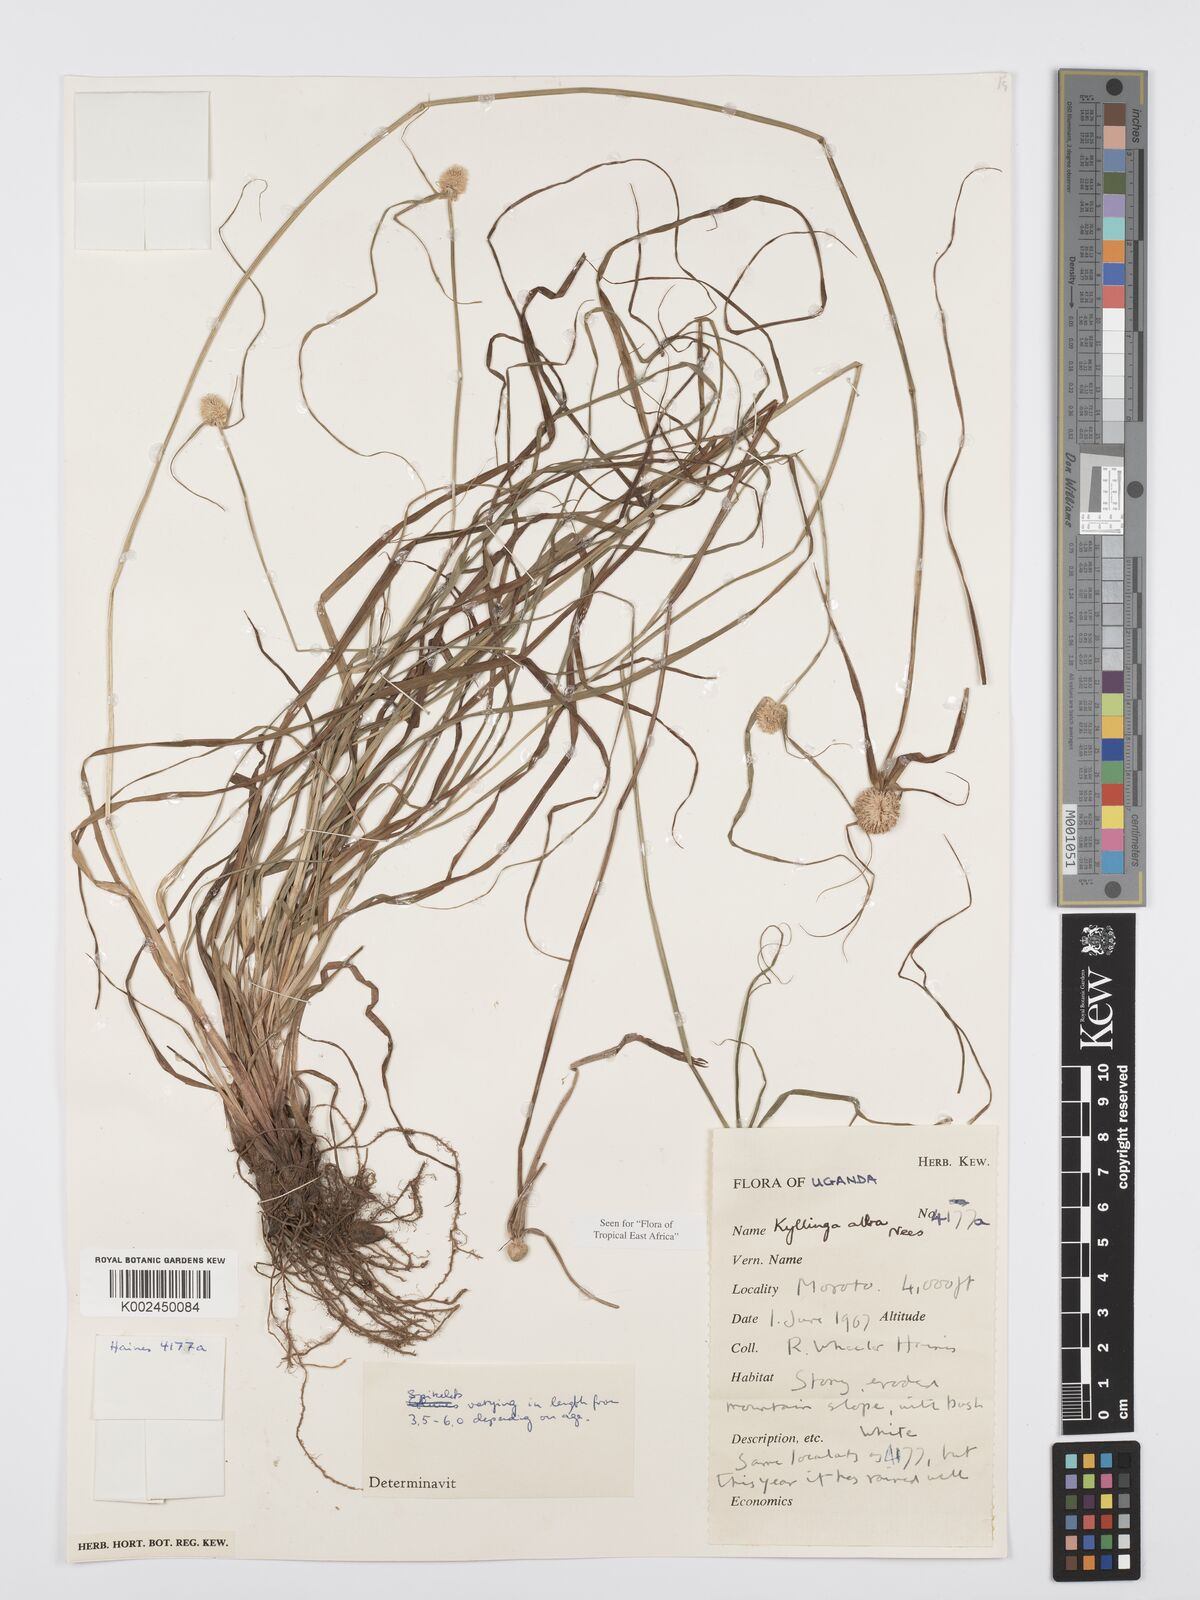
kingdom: Plantae
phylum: Tracheophyta
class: Liliopsida
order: Poales
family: Cyperaceae
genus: Cyperus
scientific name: Cyperus
